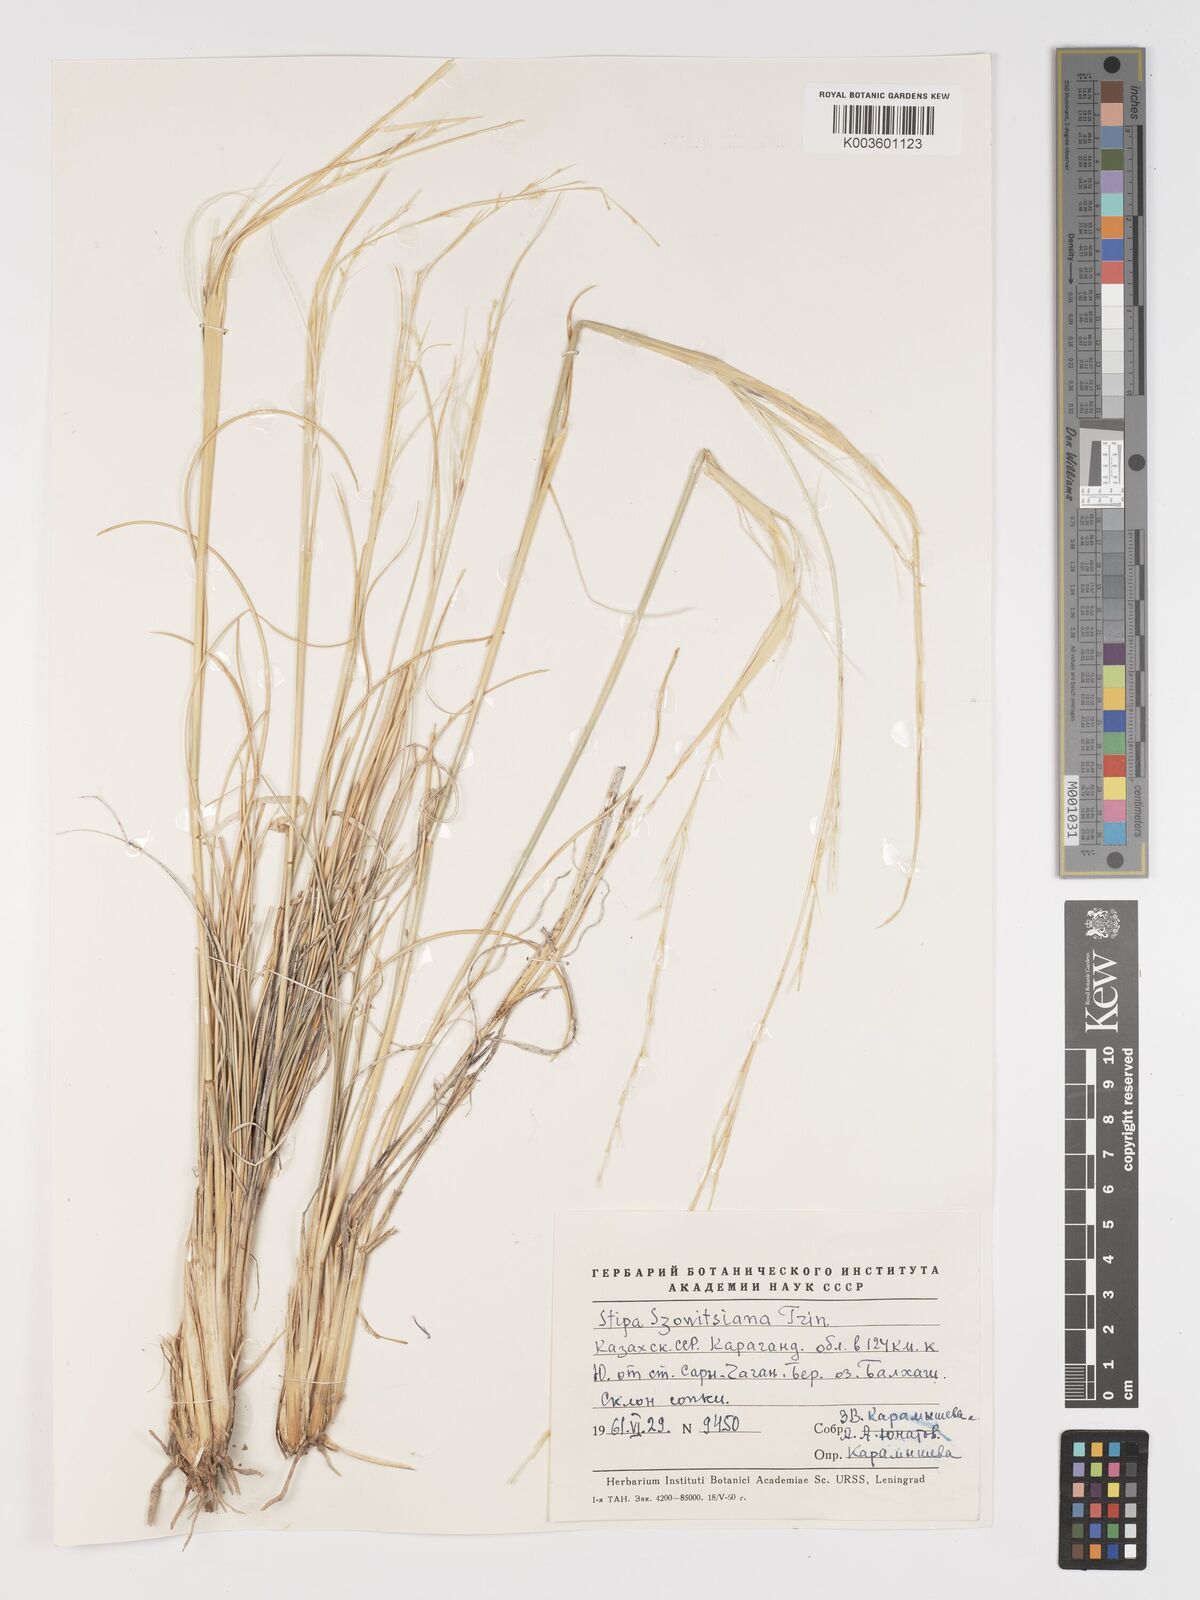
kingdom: Plantae
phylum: Tracheophyta
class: Liliopsida
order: Poales
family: Poaceae
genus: Stipa
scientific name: Stipa arabica
